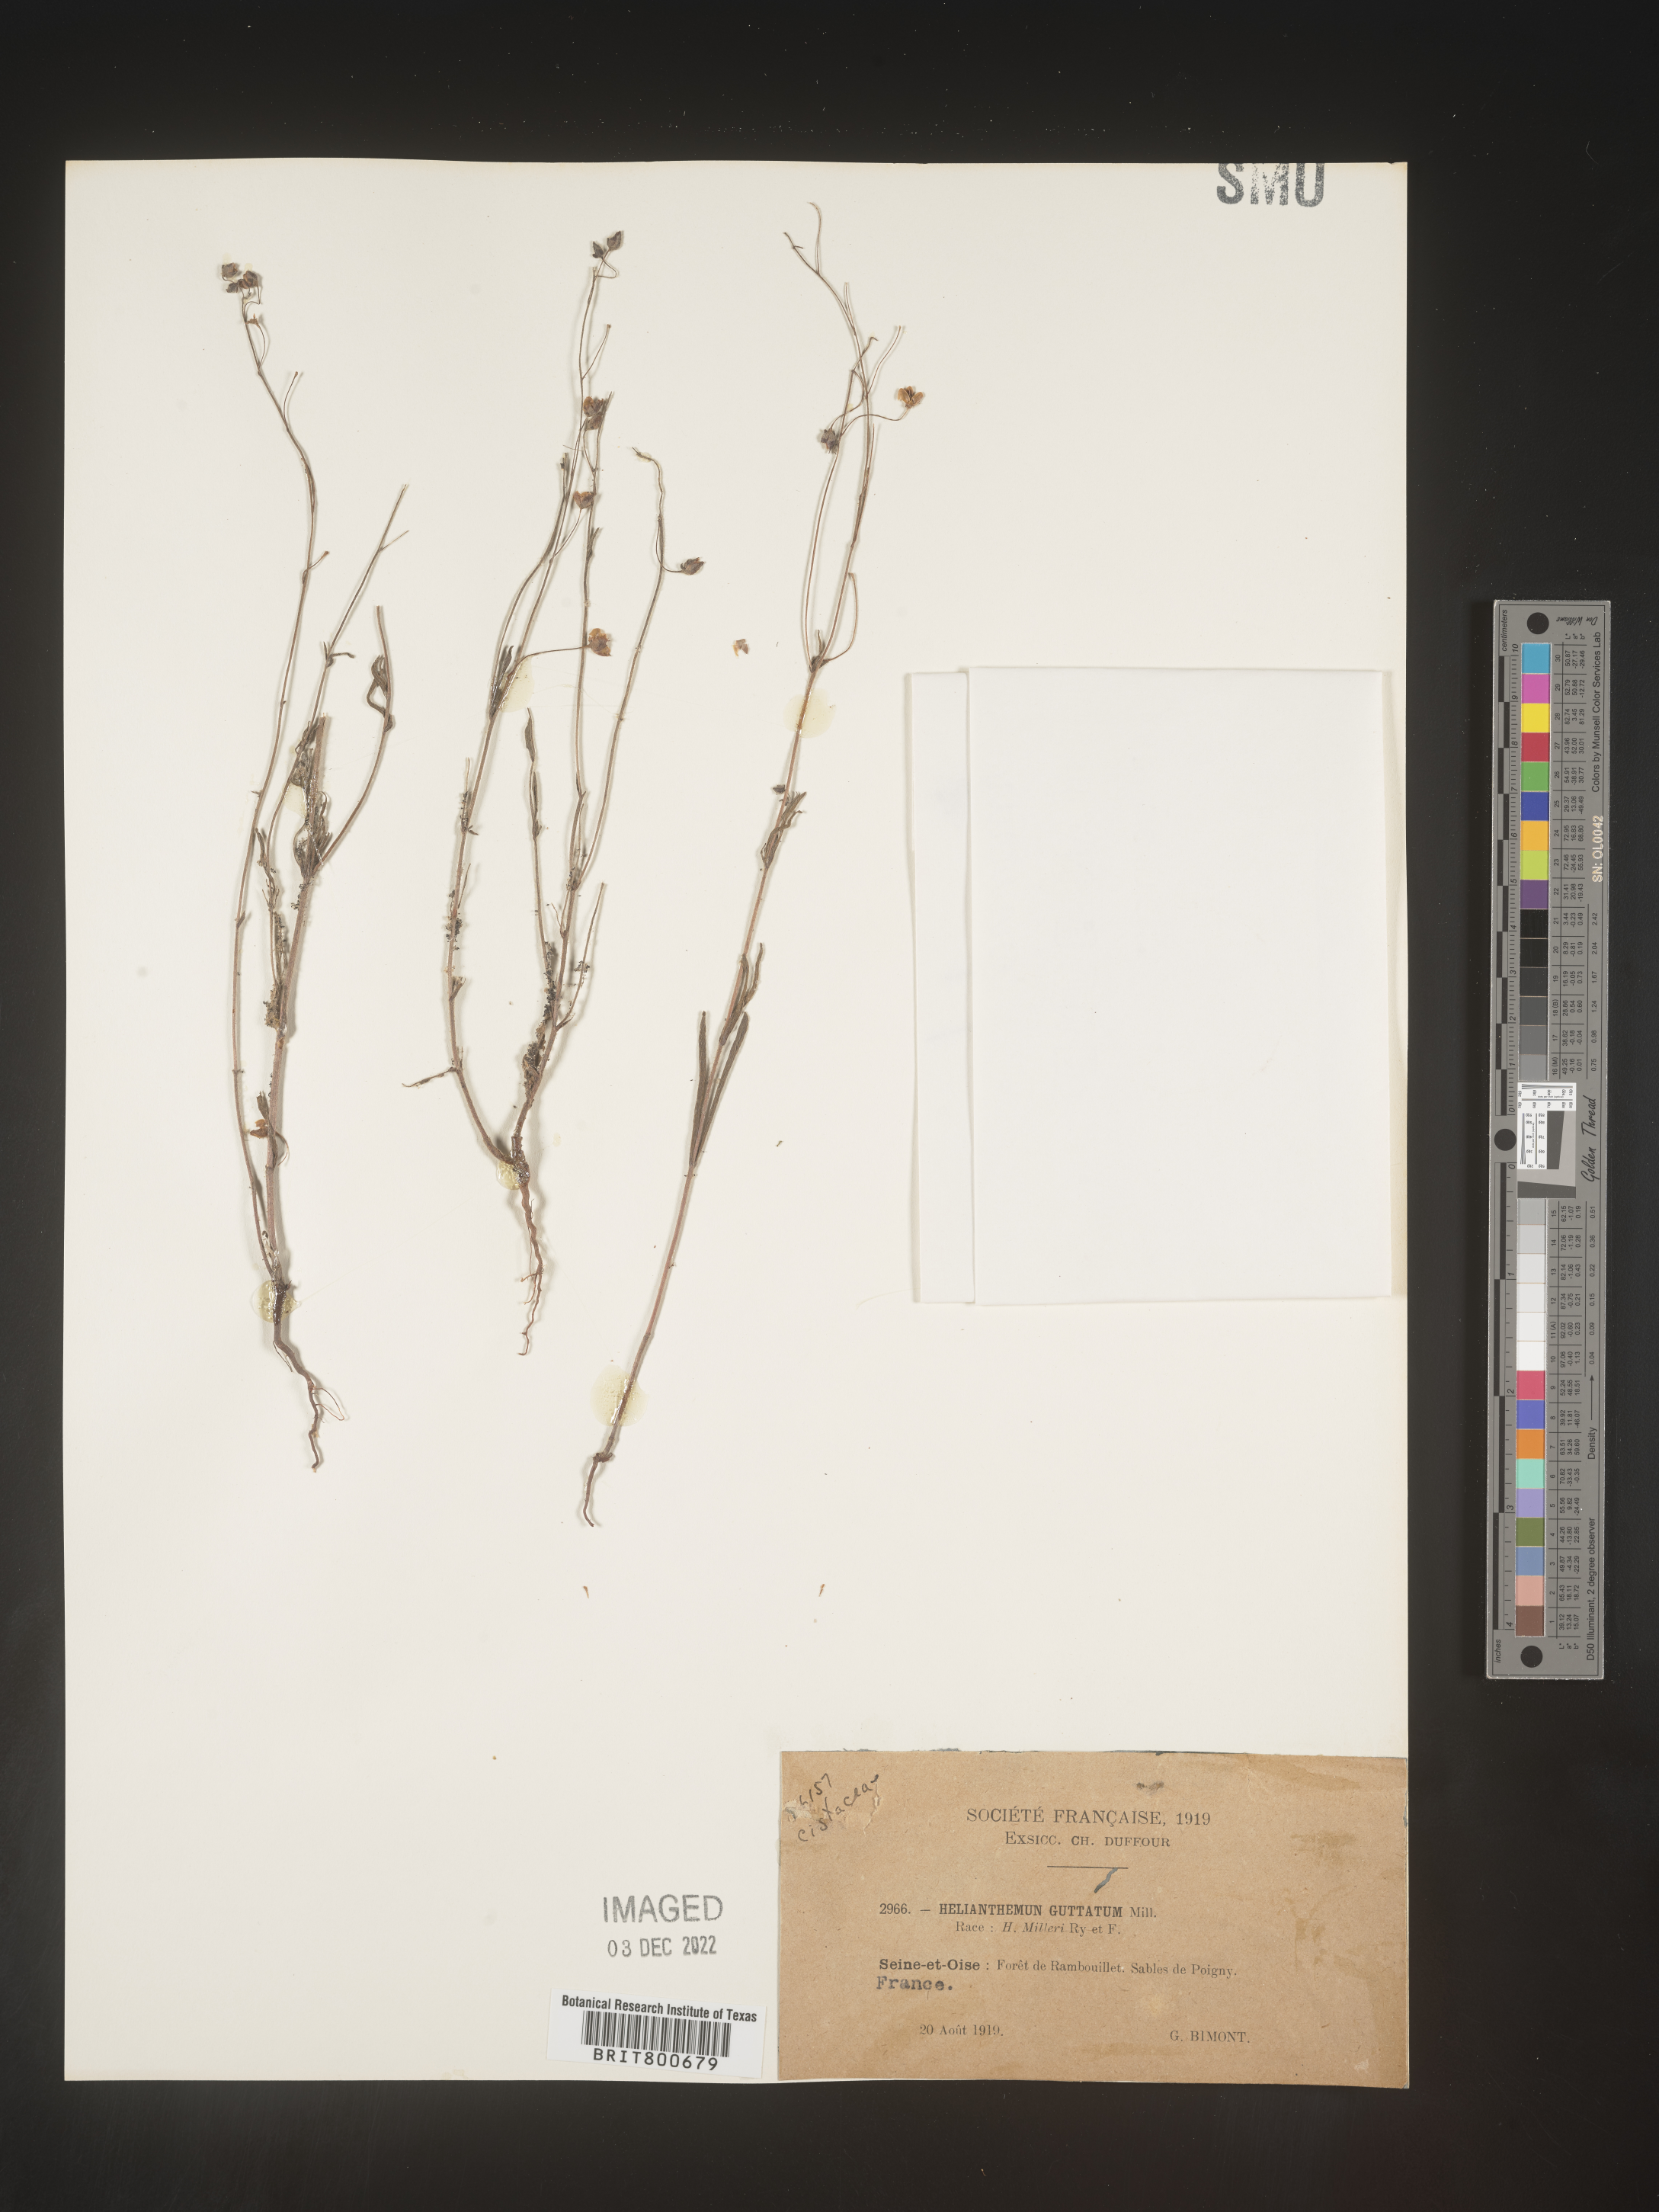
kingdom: Plantae
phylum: Tracheophyta
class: Magnoliopsida
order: Malvales
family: Cistaceae
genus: Helianthemum
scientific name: Helianthemum
